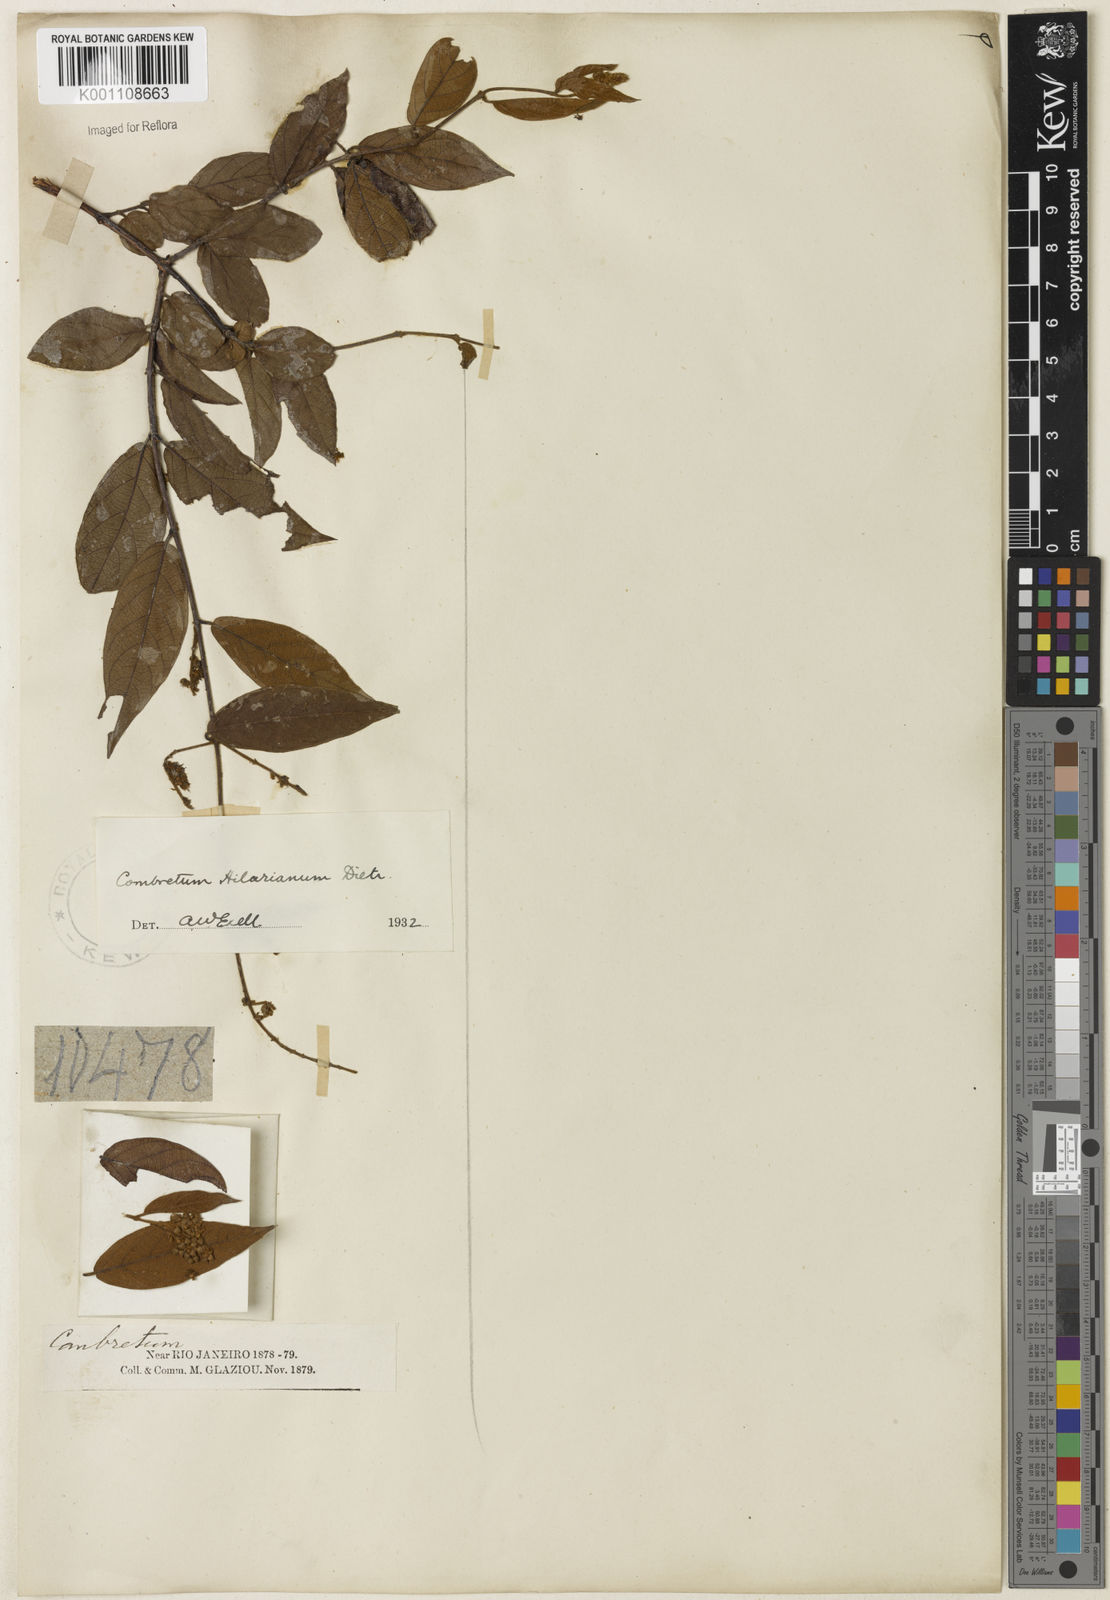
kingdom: Plantae
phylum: Tracheophyta
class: Magnoliopsida
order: Myrtales
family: Combretaceae
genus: Combretum
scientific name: Combretum hilarianum
